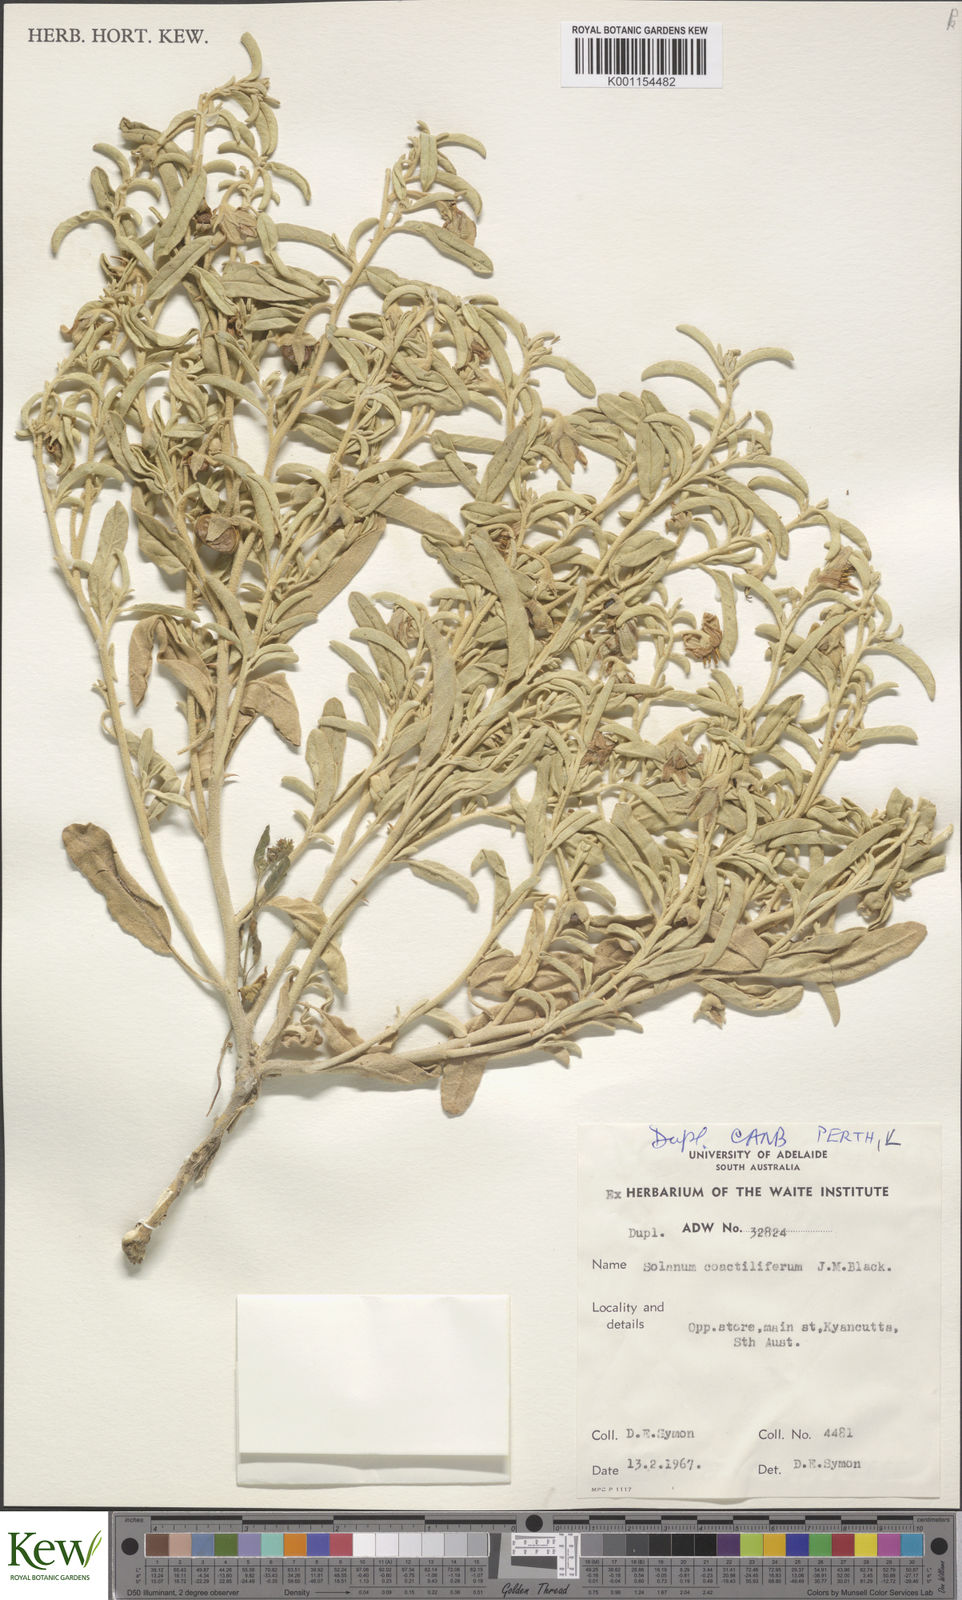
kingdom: Plantae
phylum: Tracheophyta
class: Magnoliopsida
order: Solanales
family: Solanaceae
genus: Solanum
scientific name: Solanum coactiliferum
